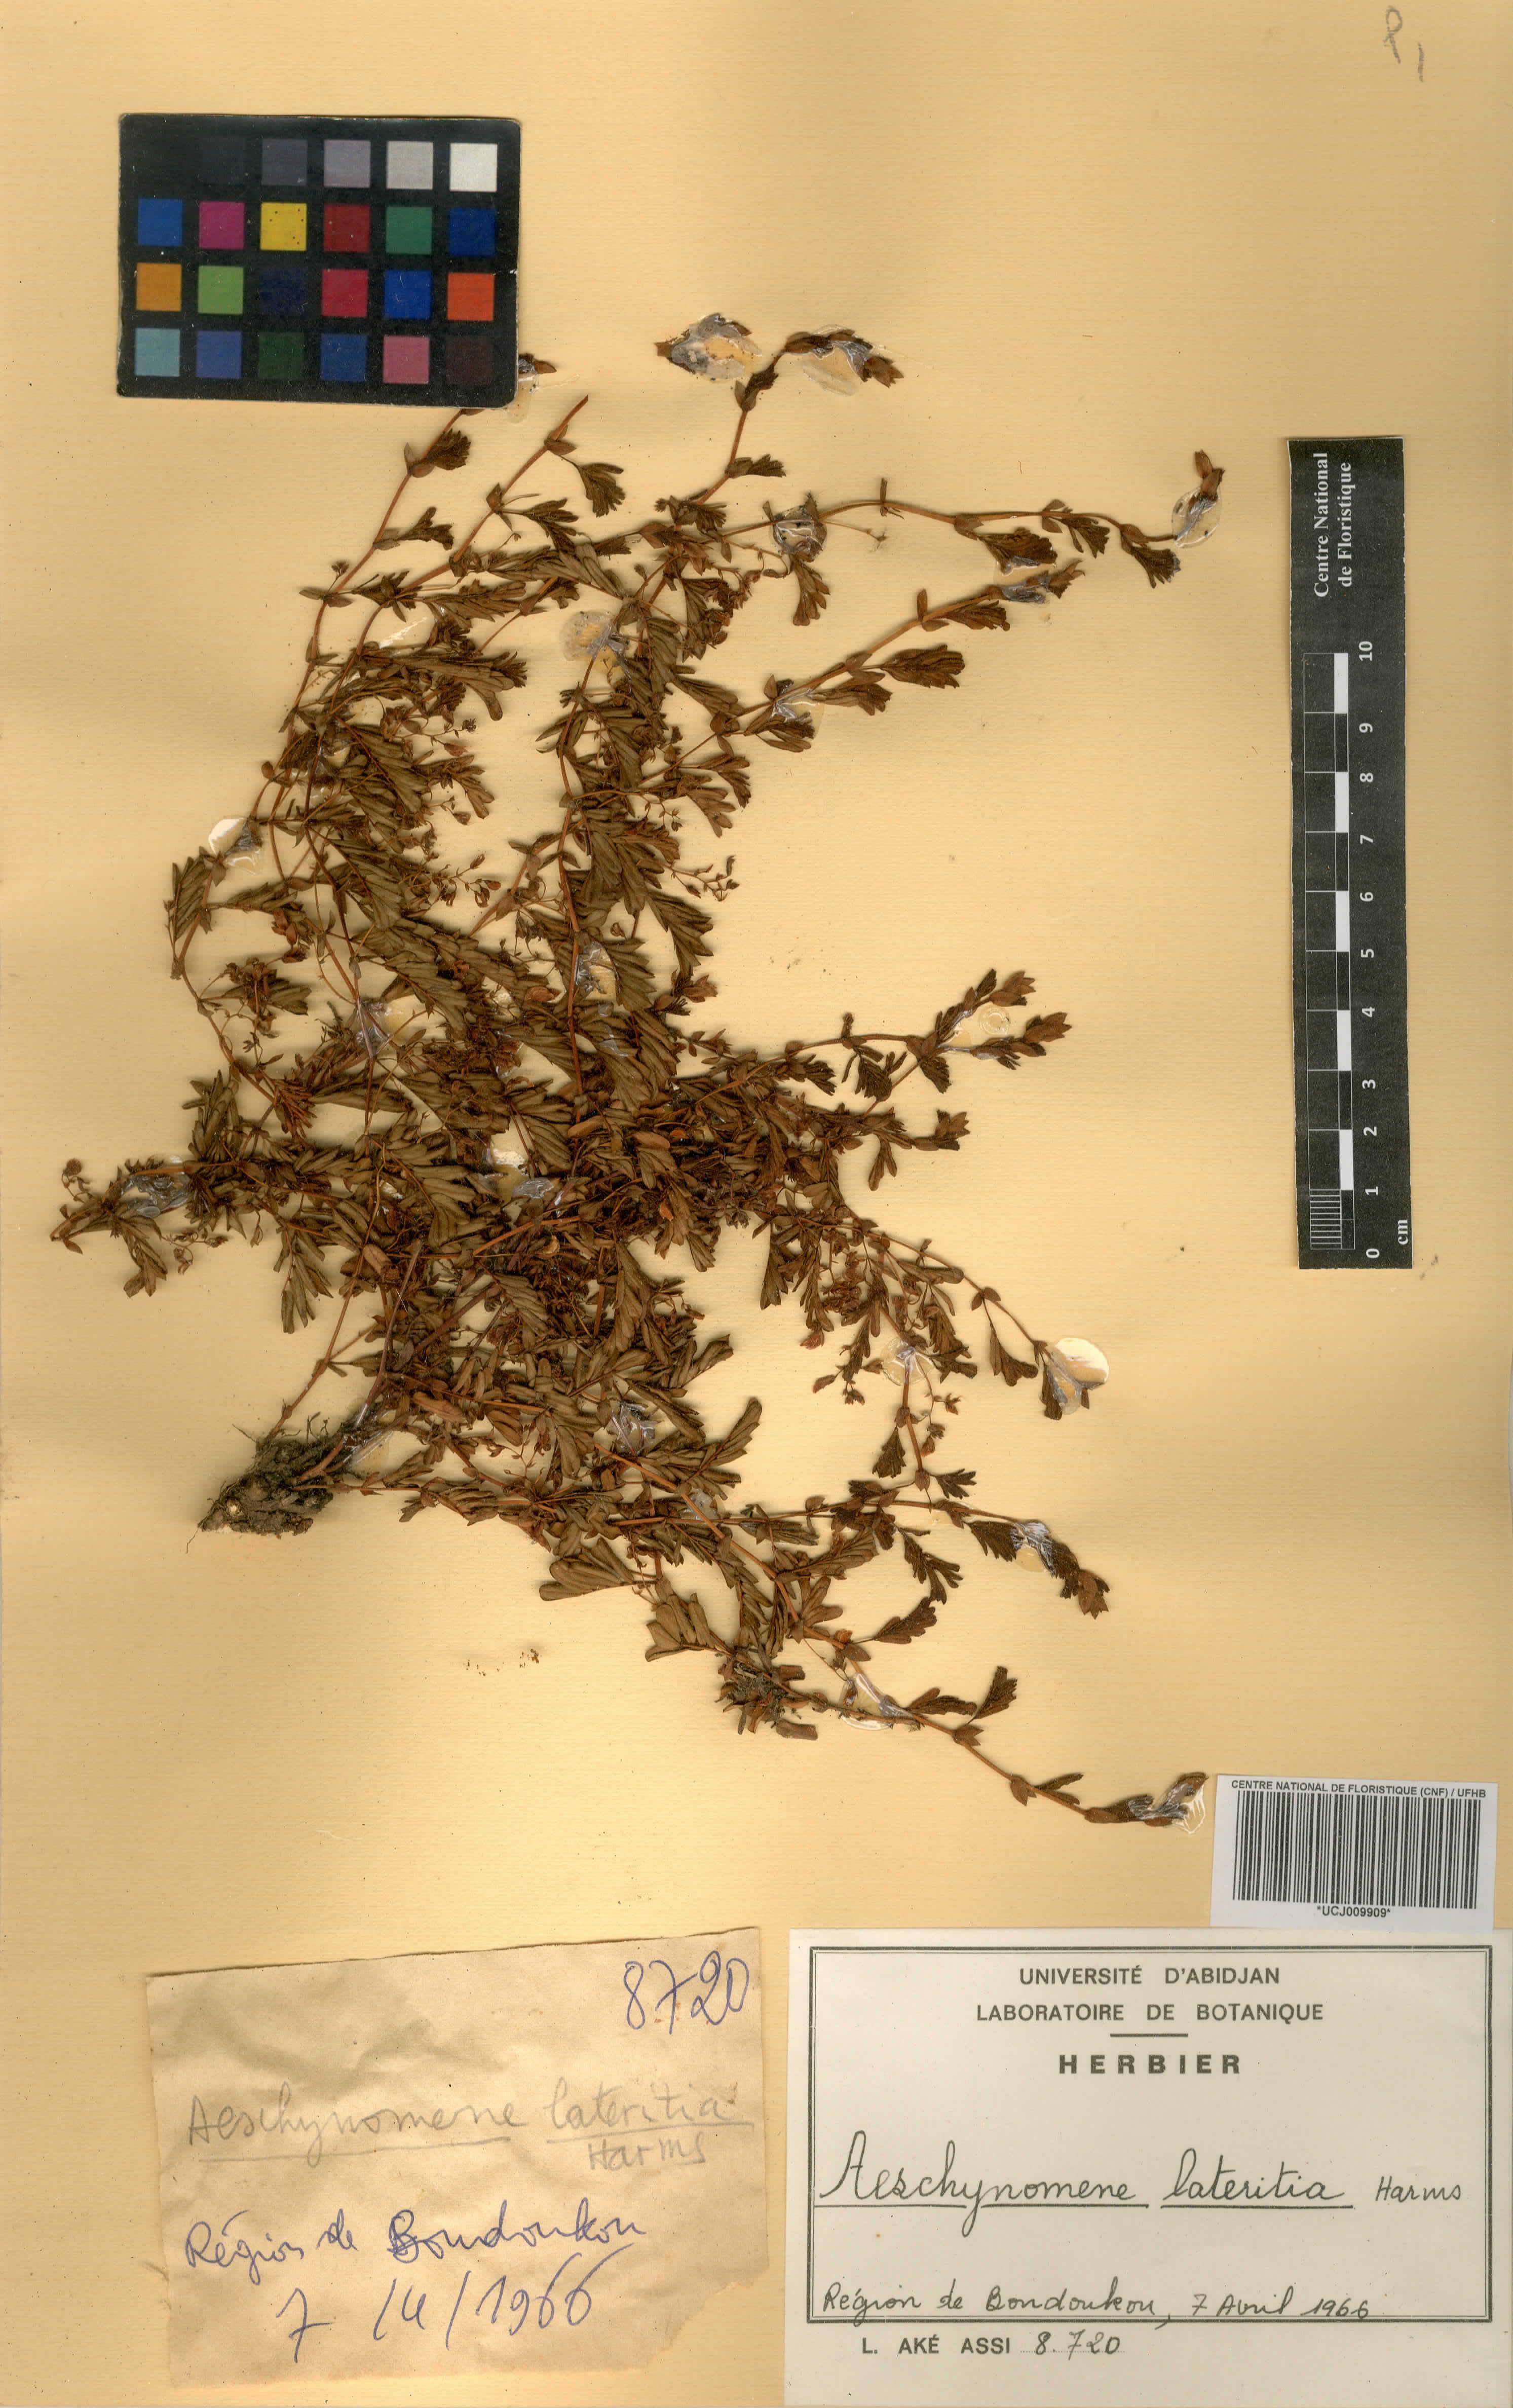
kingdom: Plantae
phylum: Tracheophyta
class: Magnoliopsida
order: Fabales
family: Fabaceae
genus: Aeschynomene
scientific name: Aeschynomene lateritia
